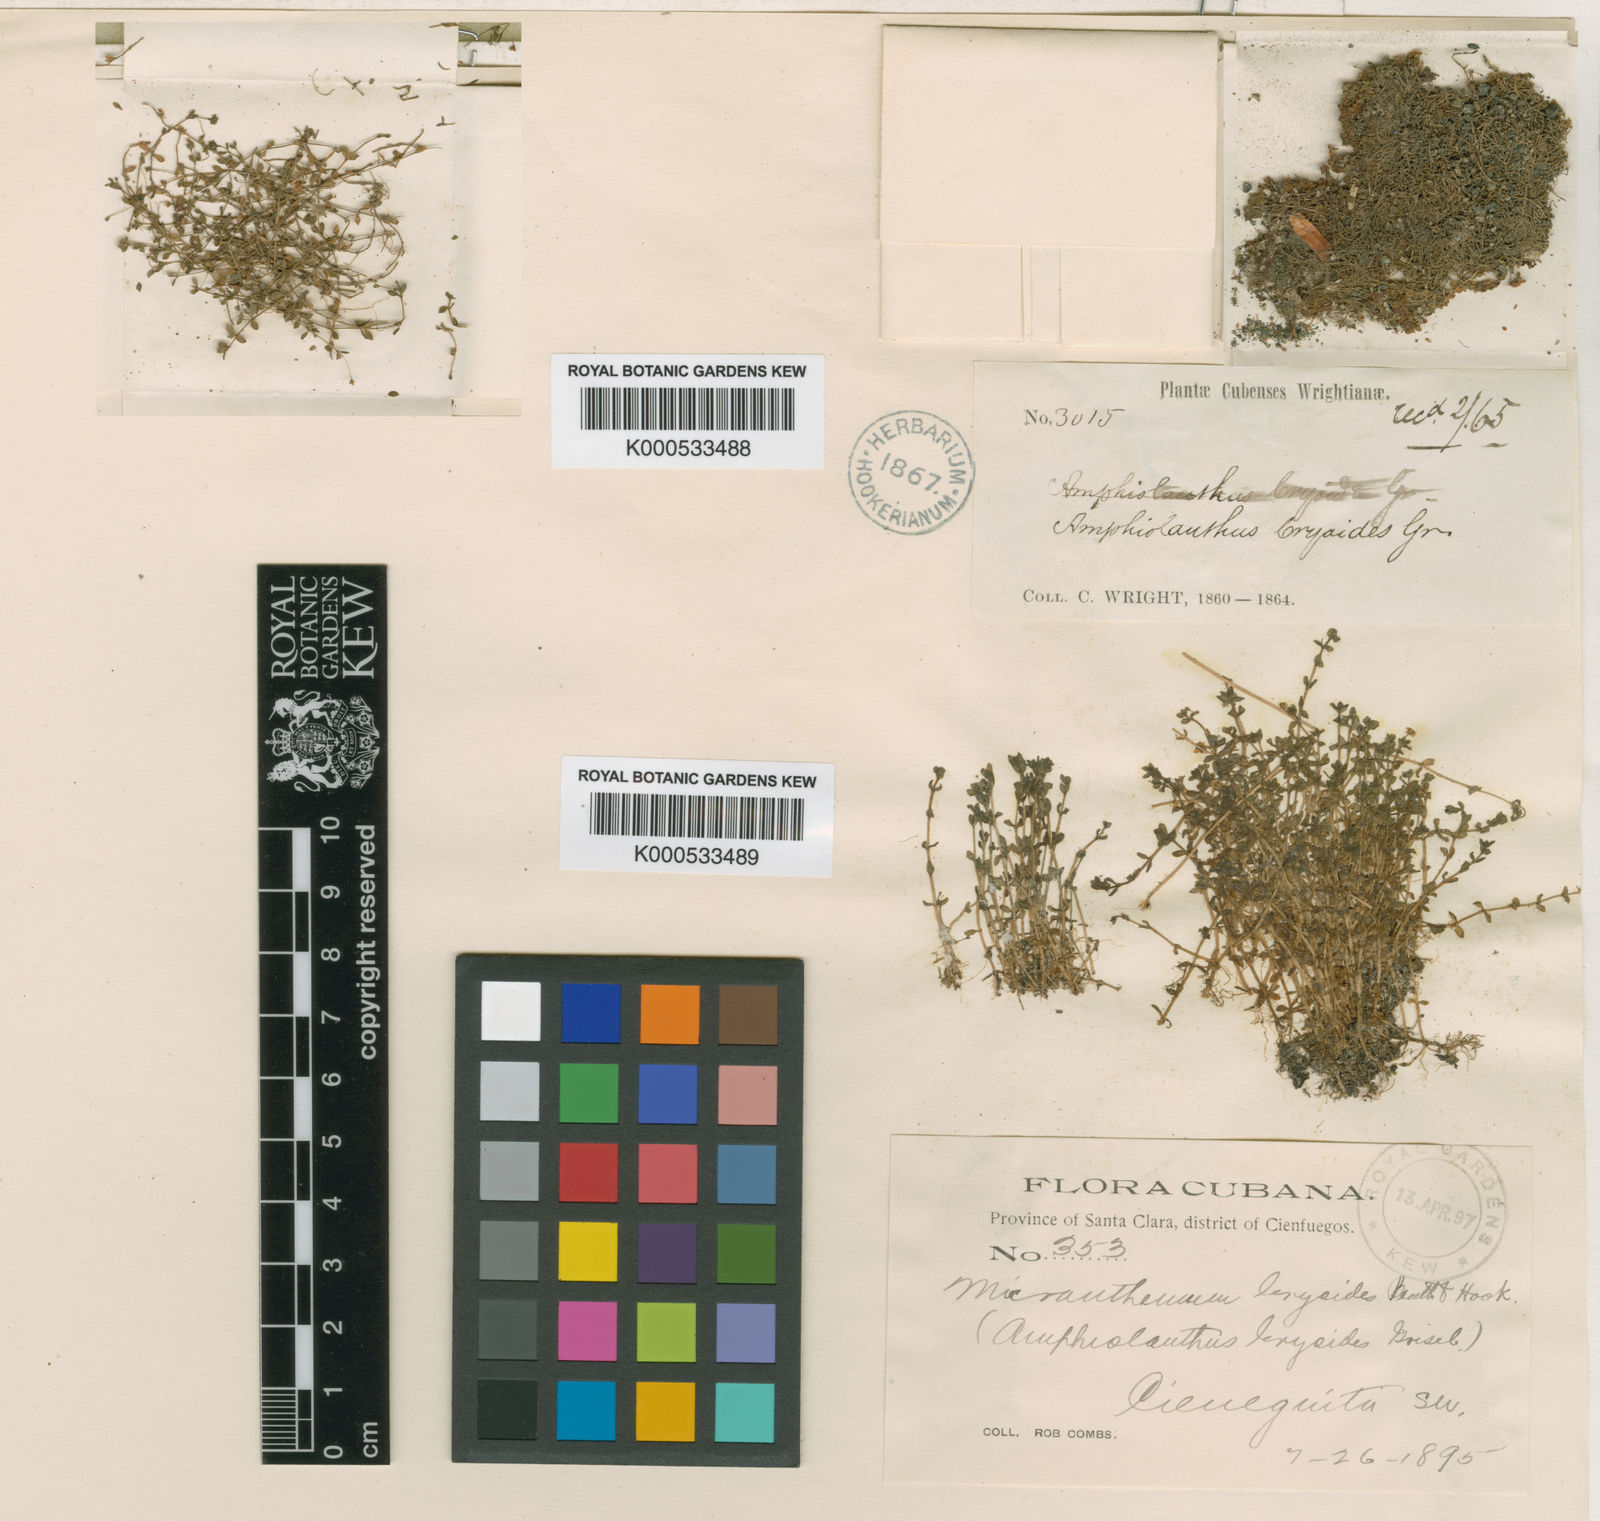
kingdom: Plantae
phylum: Tracheophyta
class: Magnoliopsida
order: Lamiales
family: Linderniaceae
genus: Micranthemum
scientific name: Micranthemum bryoides
